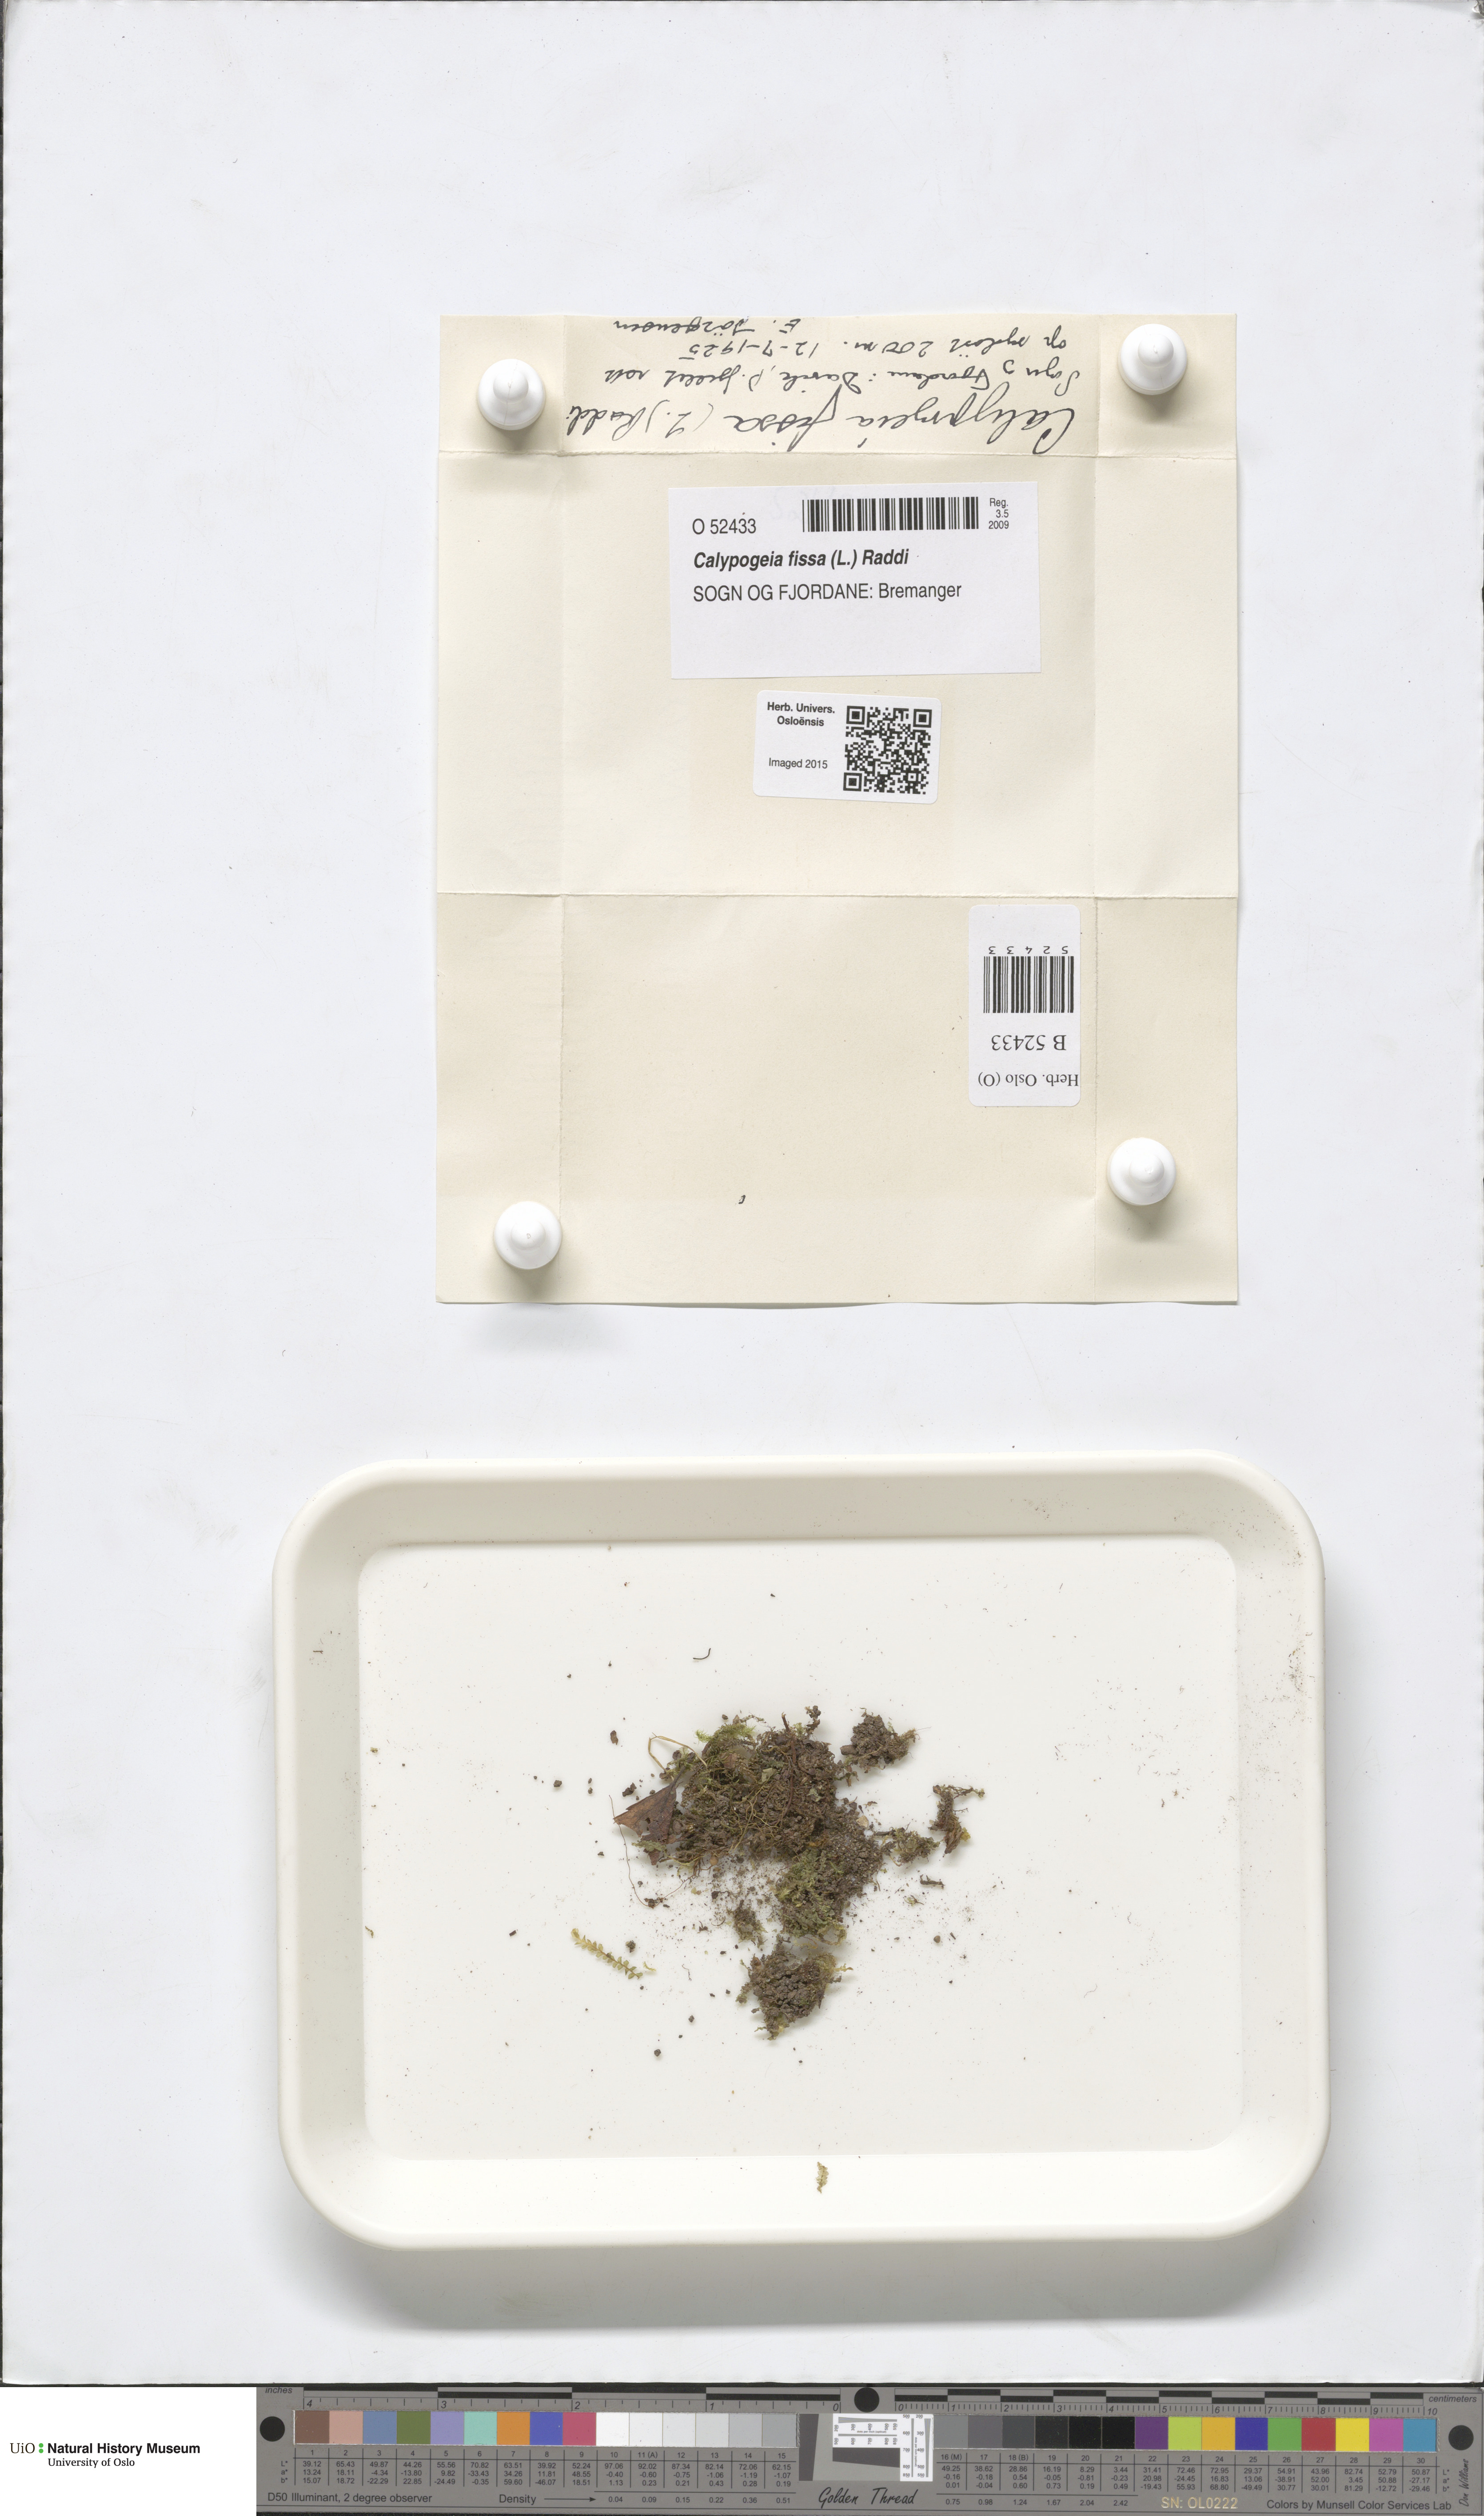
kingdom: Plantae
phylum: Marchantiophyta
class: Jungermanniopsida
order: Jungermanniales
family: Calypogeiaceae
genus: Calypogeia
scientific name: Calypogeia fissa
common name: Common pouchwort
